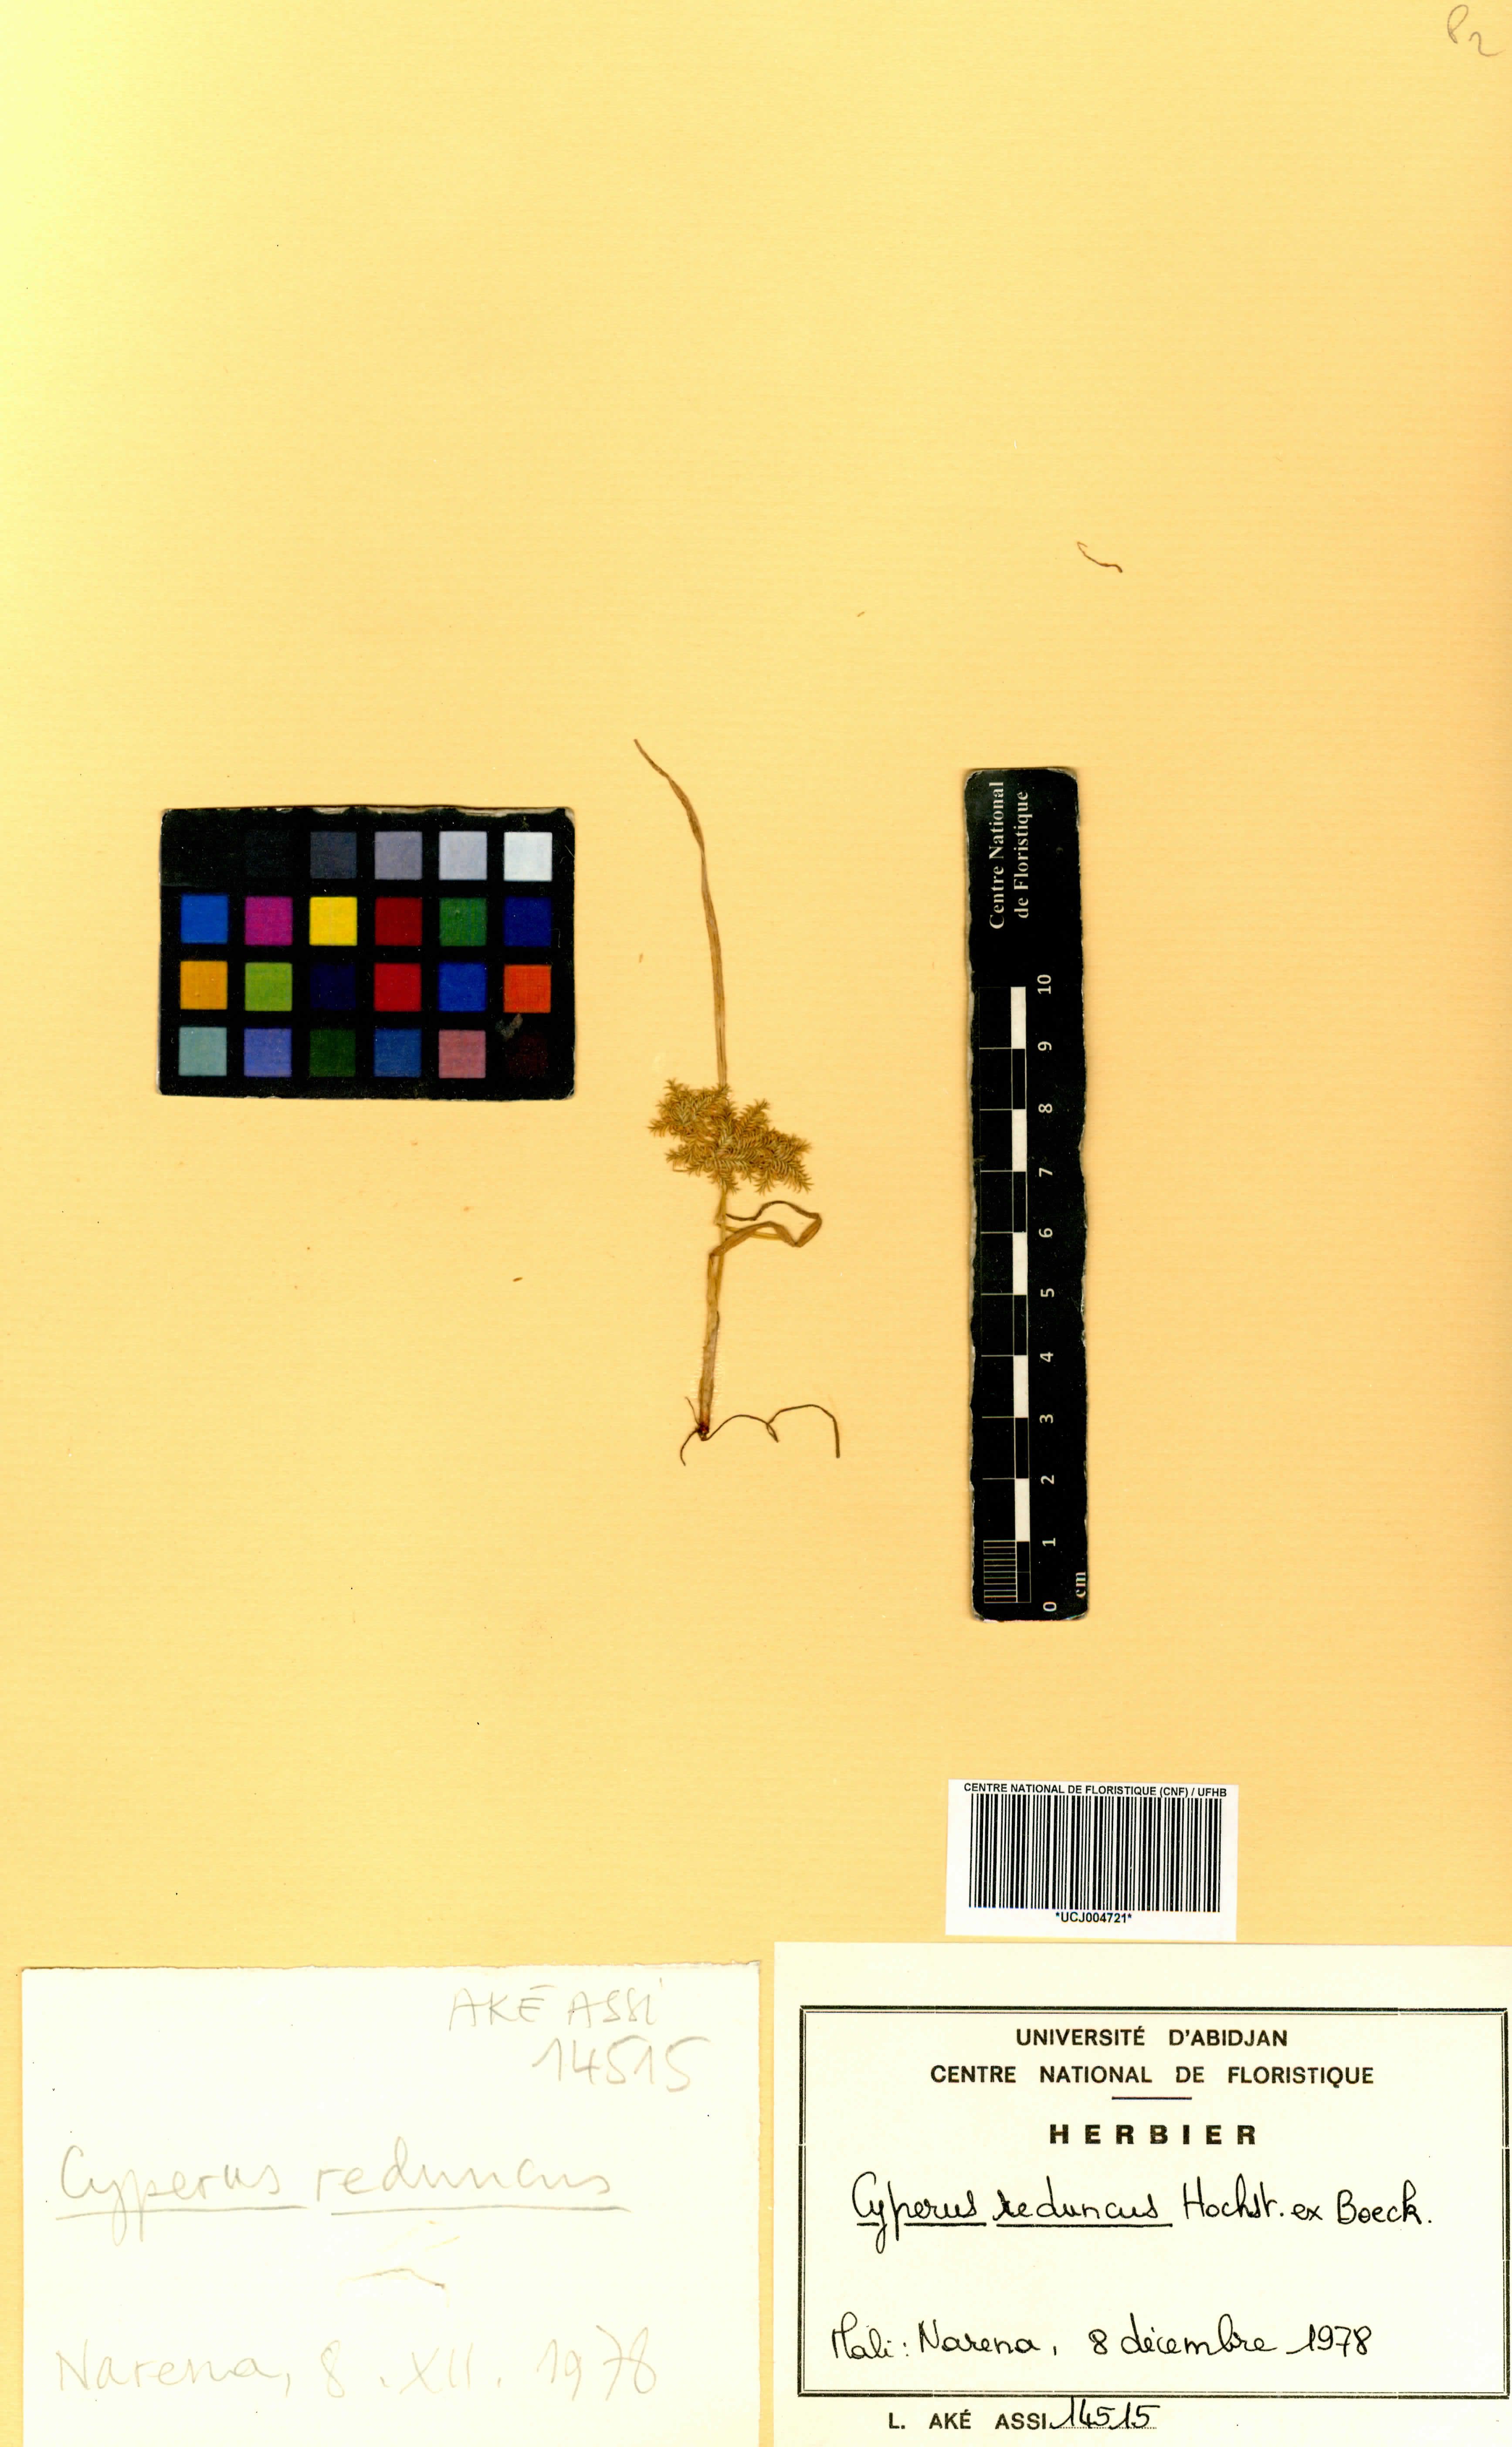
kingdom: Plantae
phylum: Tracheophyta
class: Liliopsida
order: Poales
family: Cyperaceae
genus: Cyperus
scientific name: Cyperus reduncus
